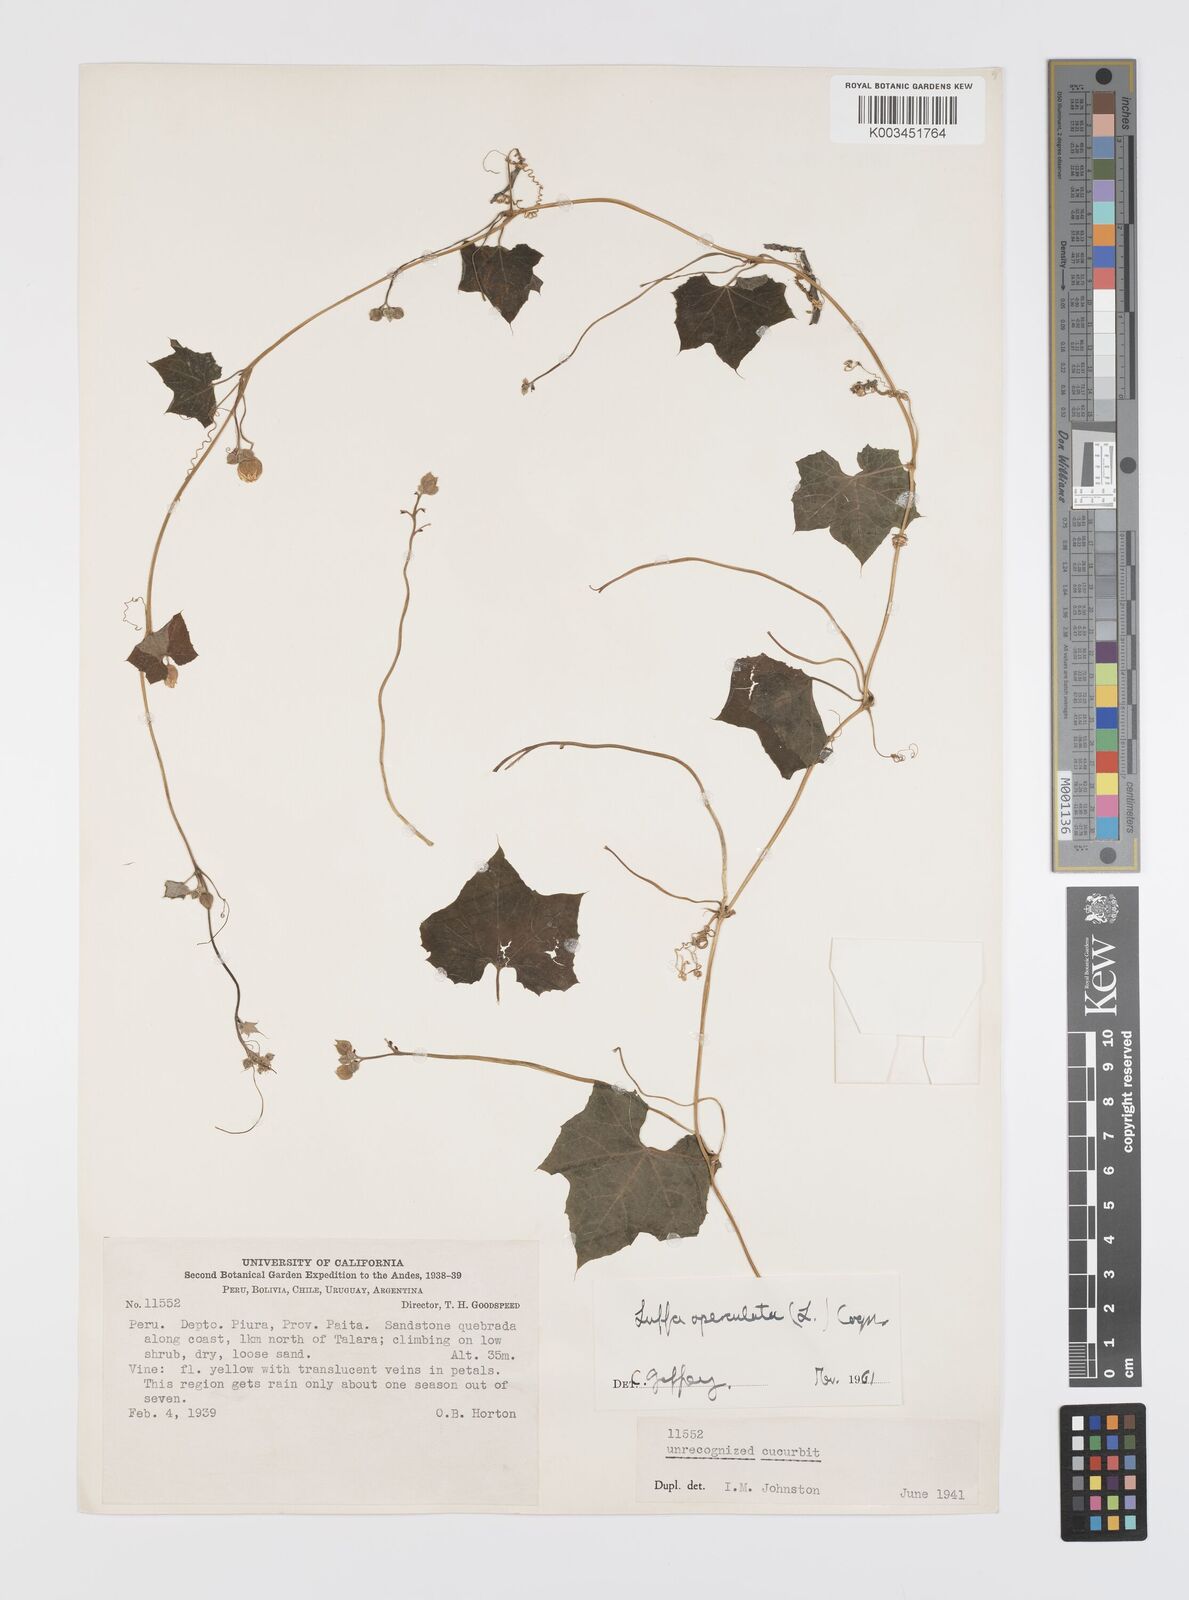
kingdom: Plantae
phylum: Tracheophyta
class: Magnoliopsida
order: Cucurbitales
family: Cucurbitaceae
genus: Luffa
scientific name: Luffa astorii
